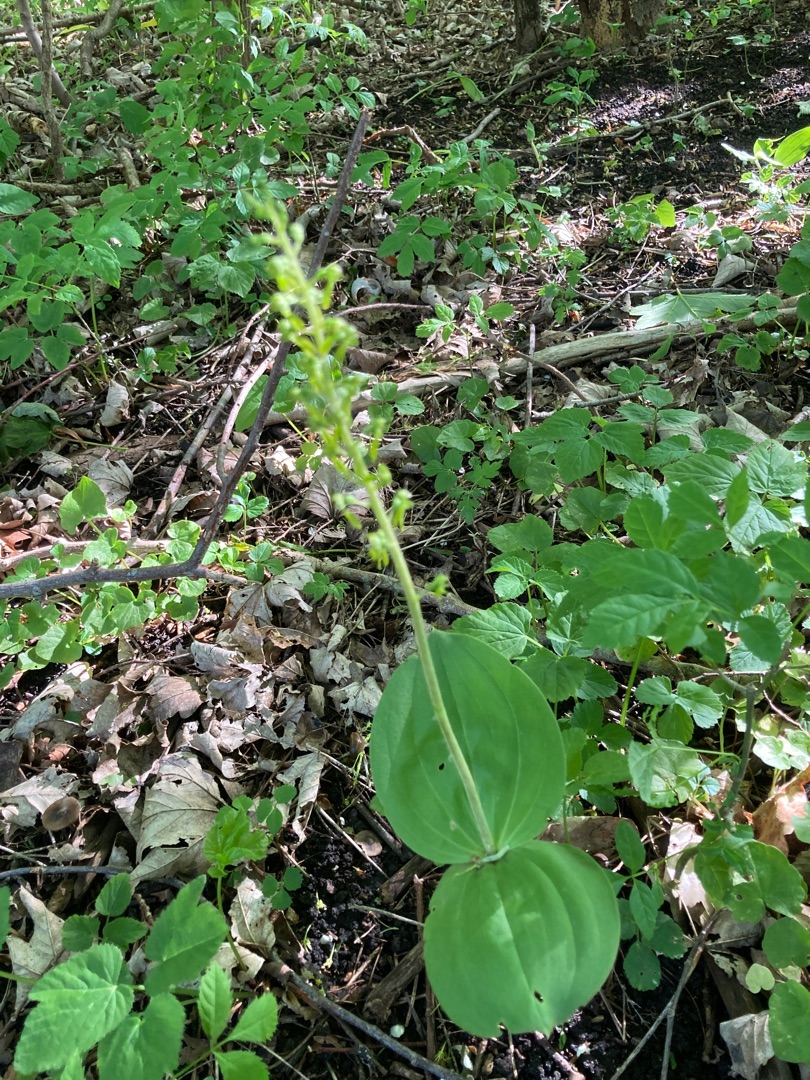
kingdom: Plantae
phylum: Tracheophyta
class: Liliopsida
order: Asparagales
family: Orchidaceae
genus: Neottia
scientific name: Neottia ovata
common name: Ægbladet fliglæbe
